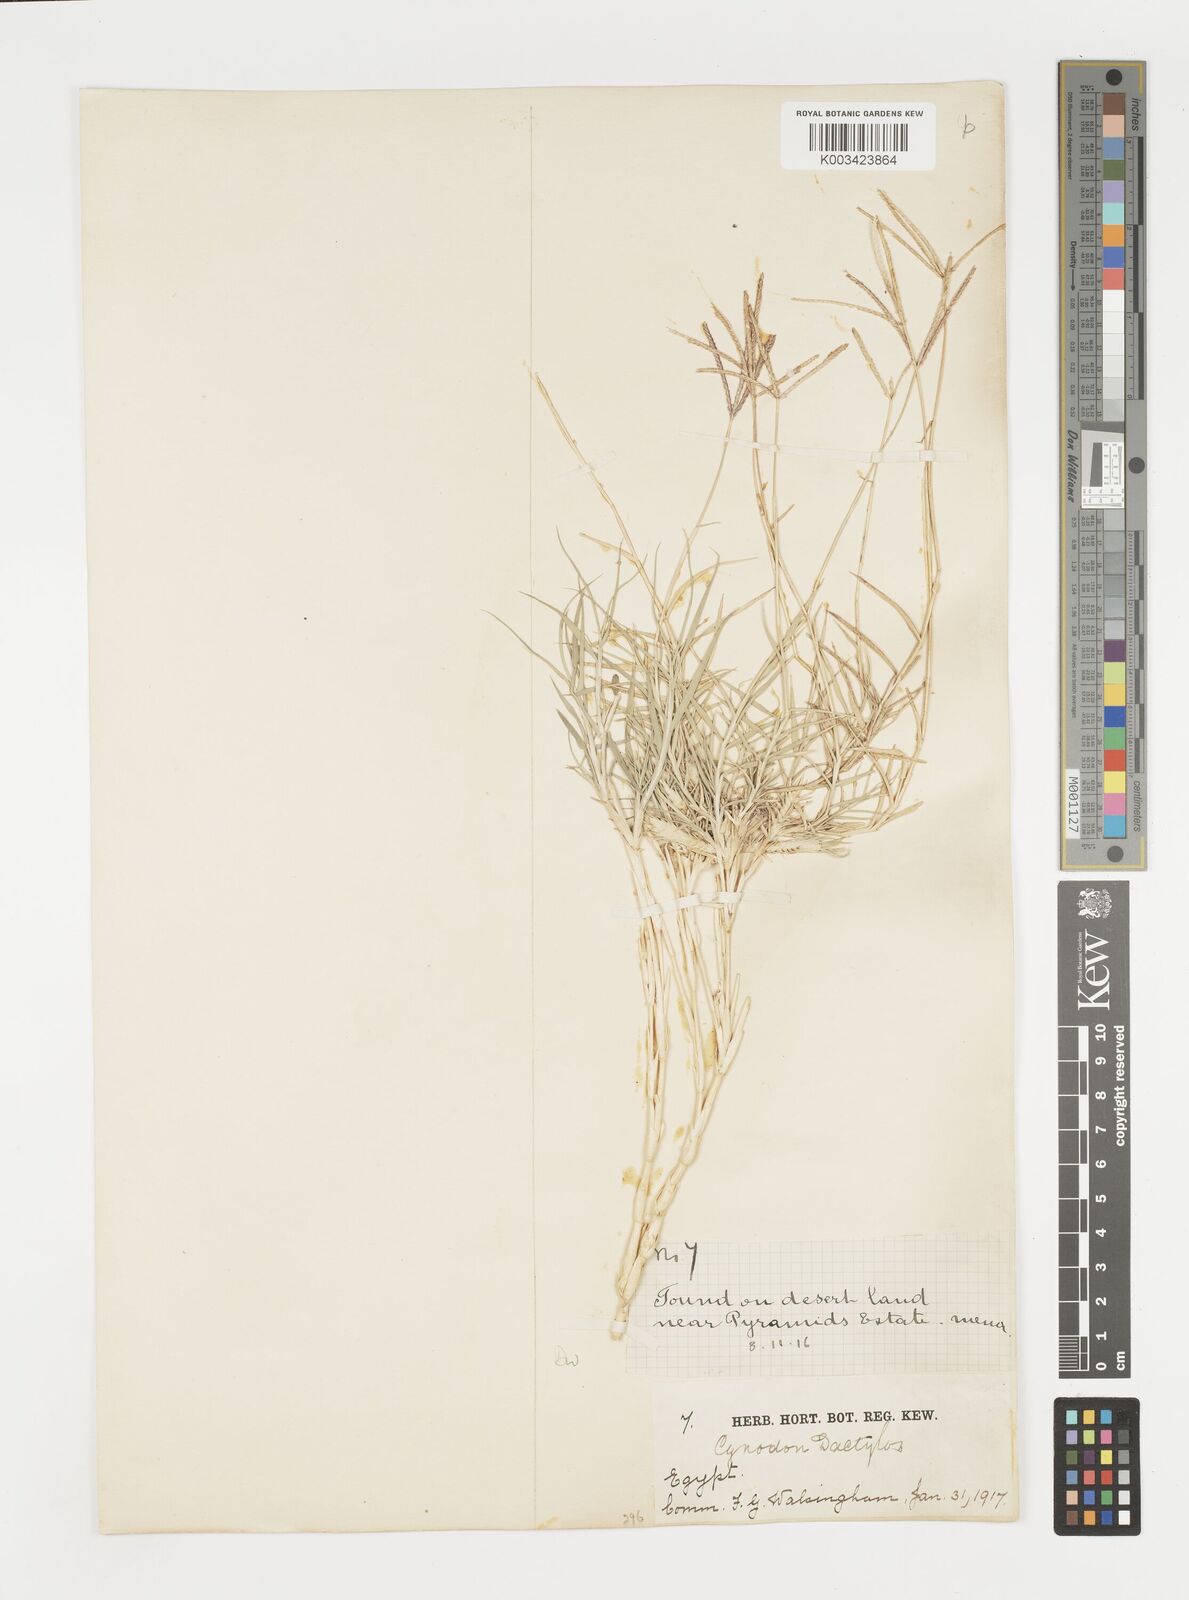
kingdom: Plantae
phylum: Tracheophyta
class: Liliopsida
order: Poales
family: Poaceae
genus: Cynodon
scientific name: Cynodon dactylon
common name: Bermuda grass
